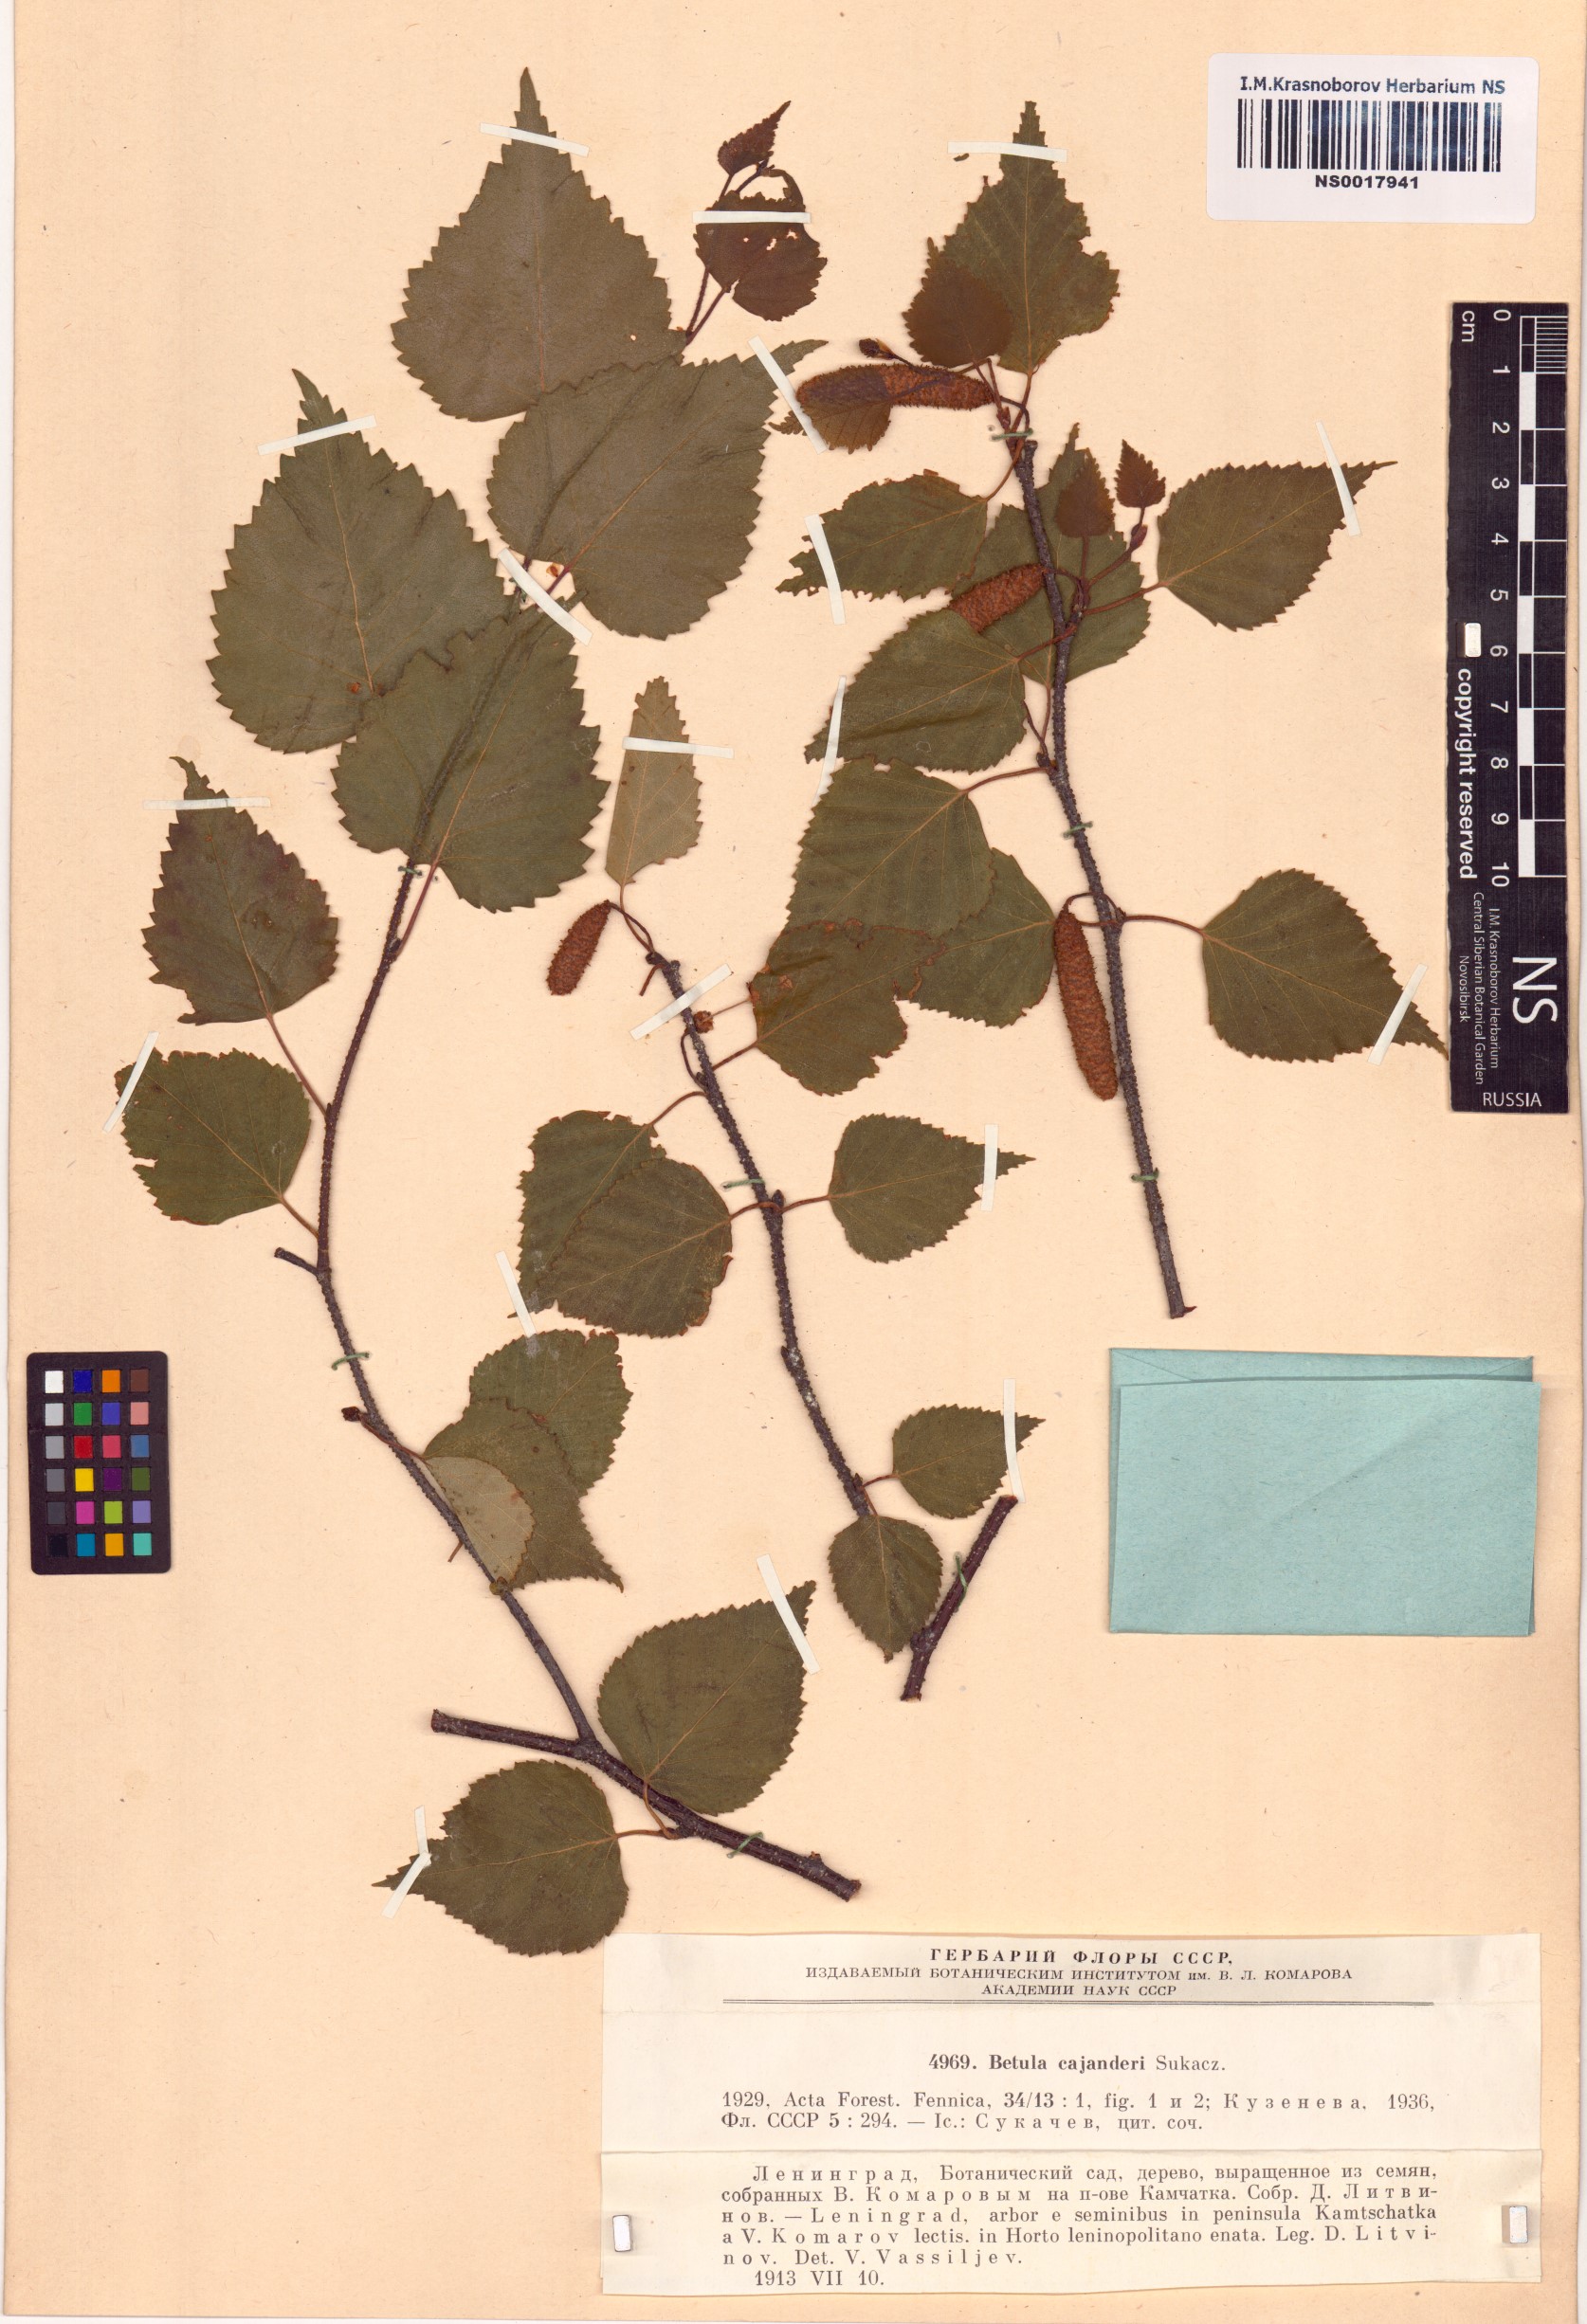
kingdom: Plantae
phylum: Tracheophyta
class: Magnoliopsida
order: Fagales
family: Betulaceae
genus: Betula
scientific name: Betula pendula
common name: Silver birch
